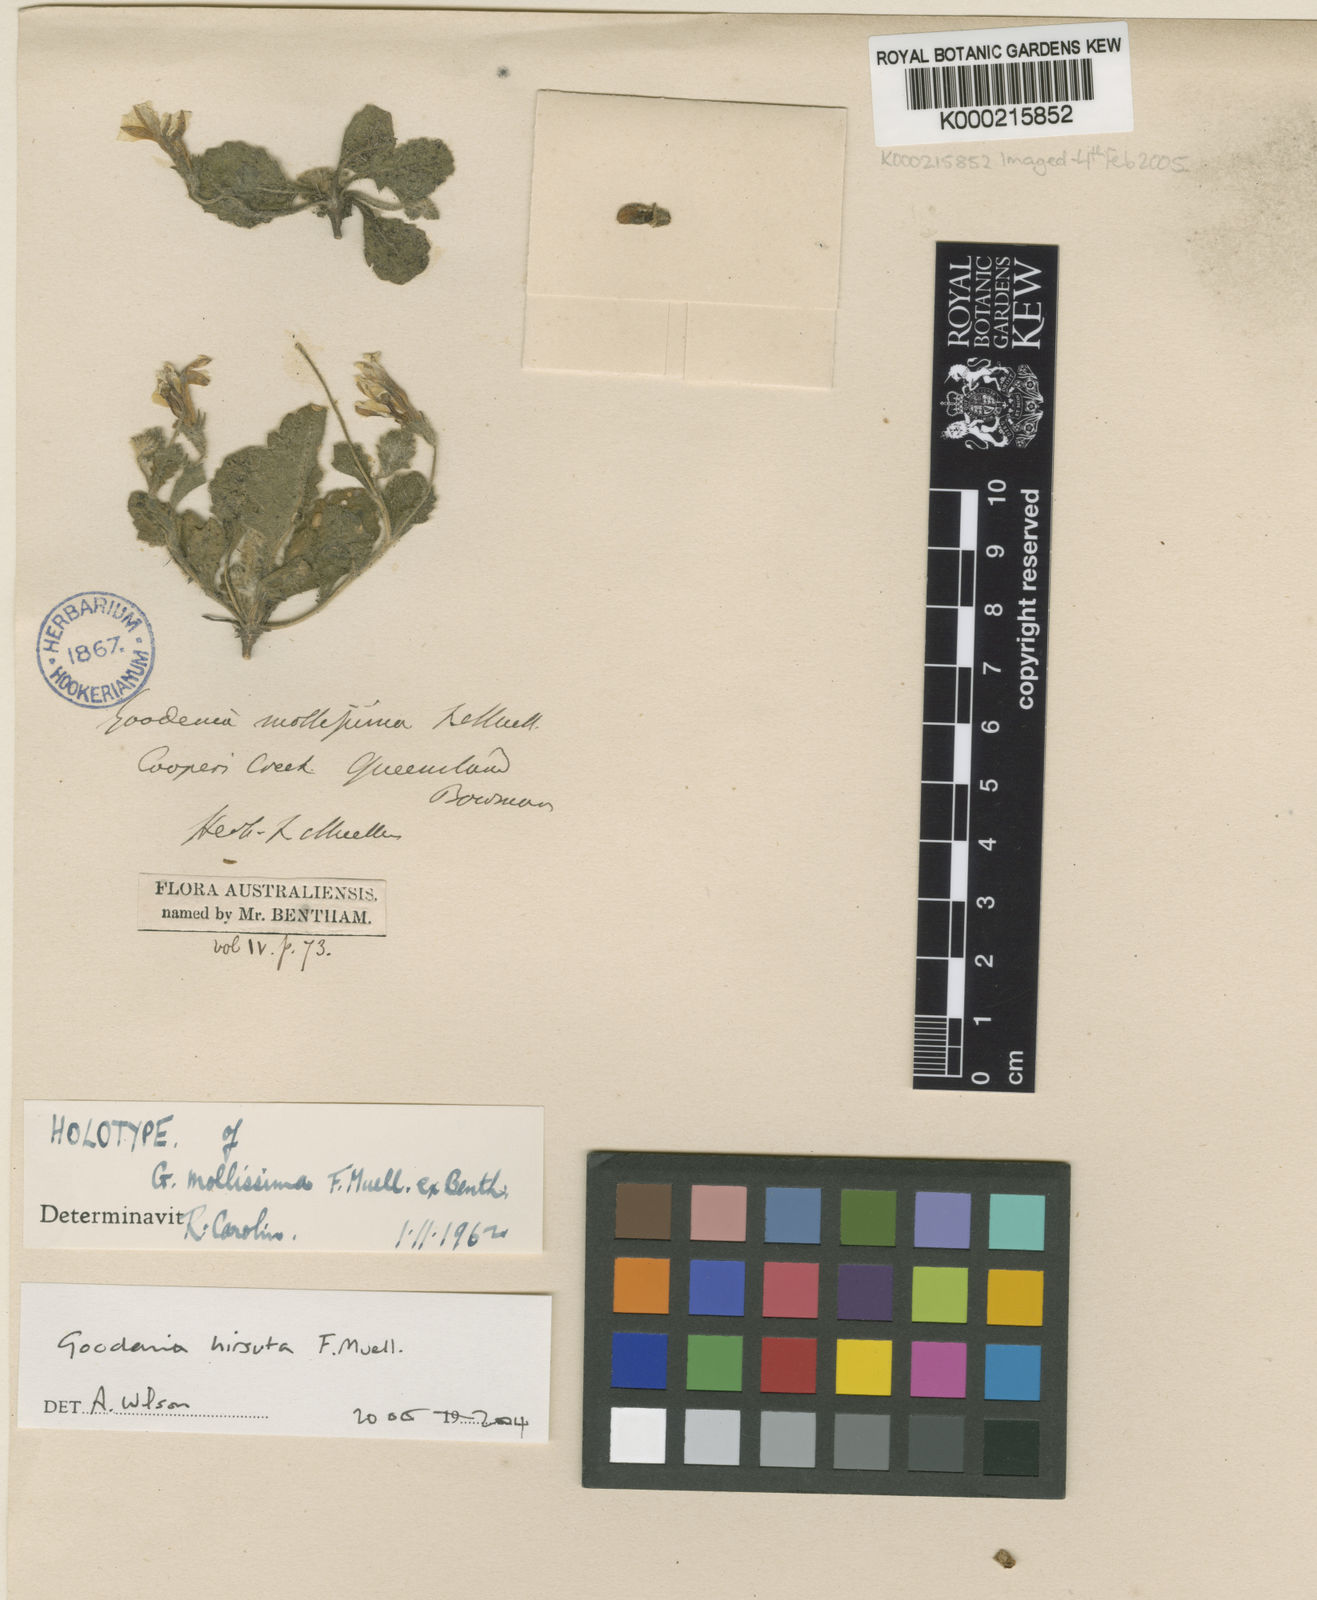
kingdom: Plantae
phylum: Tracheophyta
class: Magnoliopsida
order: Asterales
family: Goodeniaceae
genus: Goodenia
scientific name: Goodenia hirsuta
